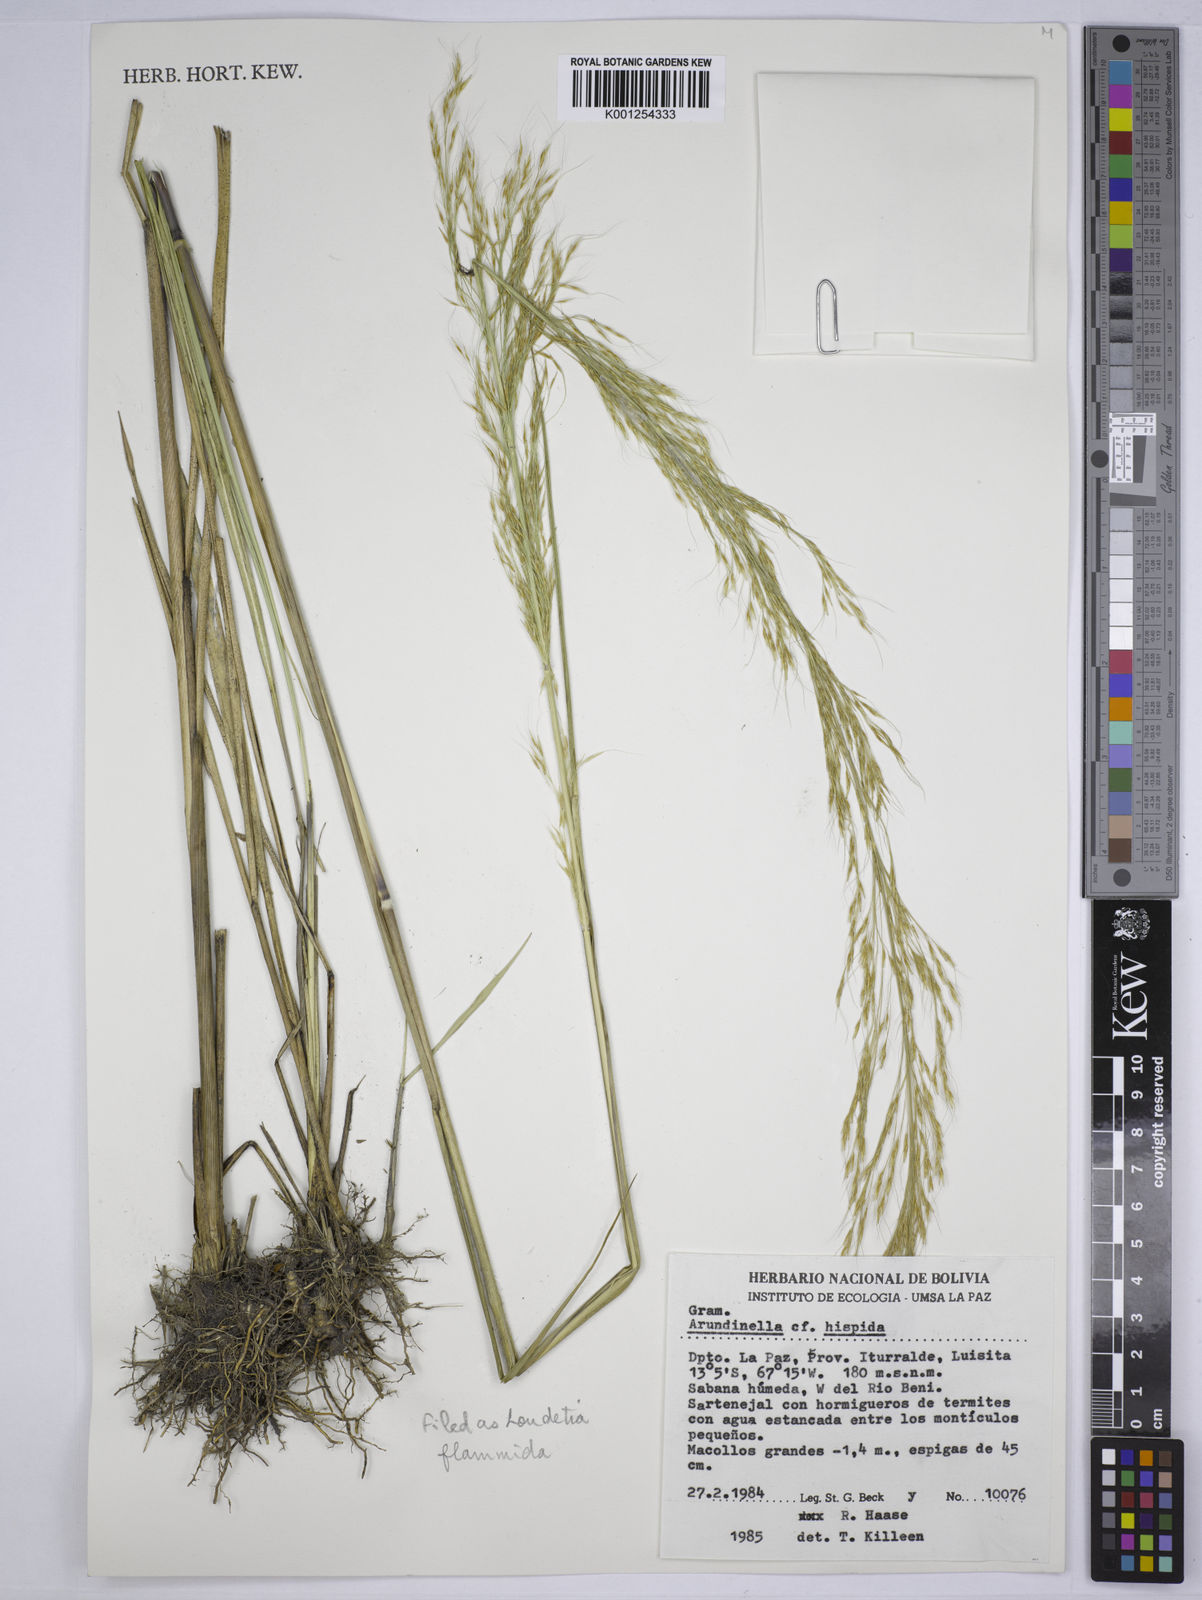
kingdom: Plantae
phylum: Tracheophyta
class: Liliopsida
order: Poales
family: Poaceae
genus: Loudetia
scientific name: Loudetia flammida
